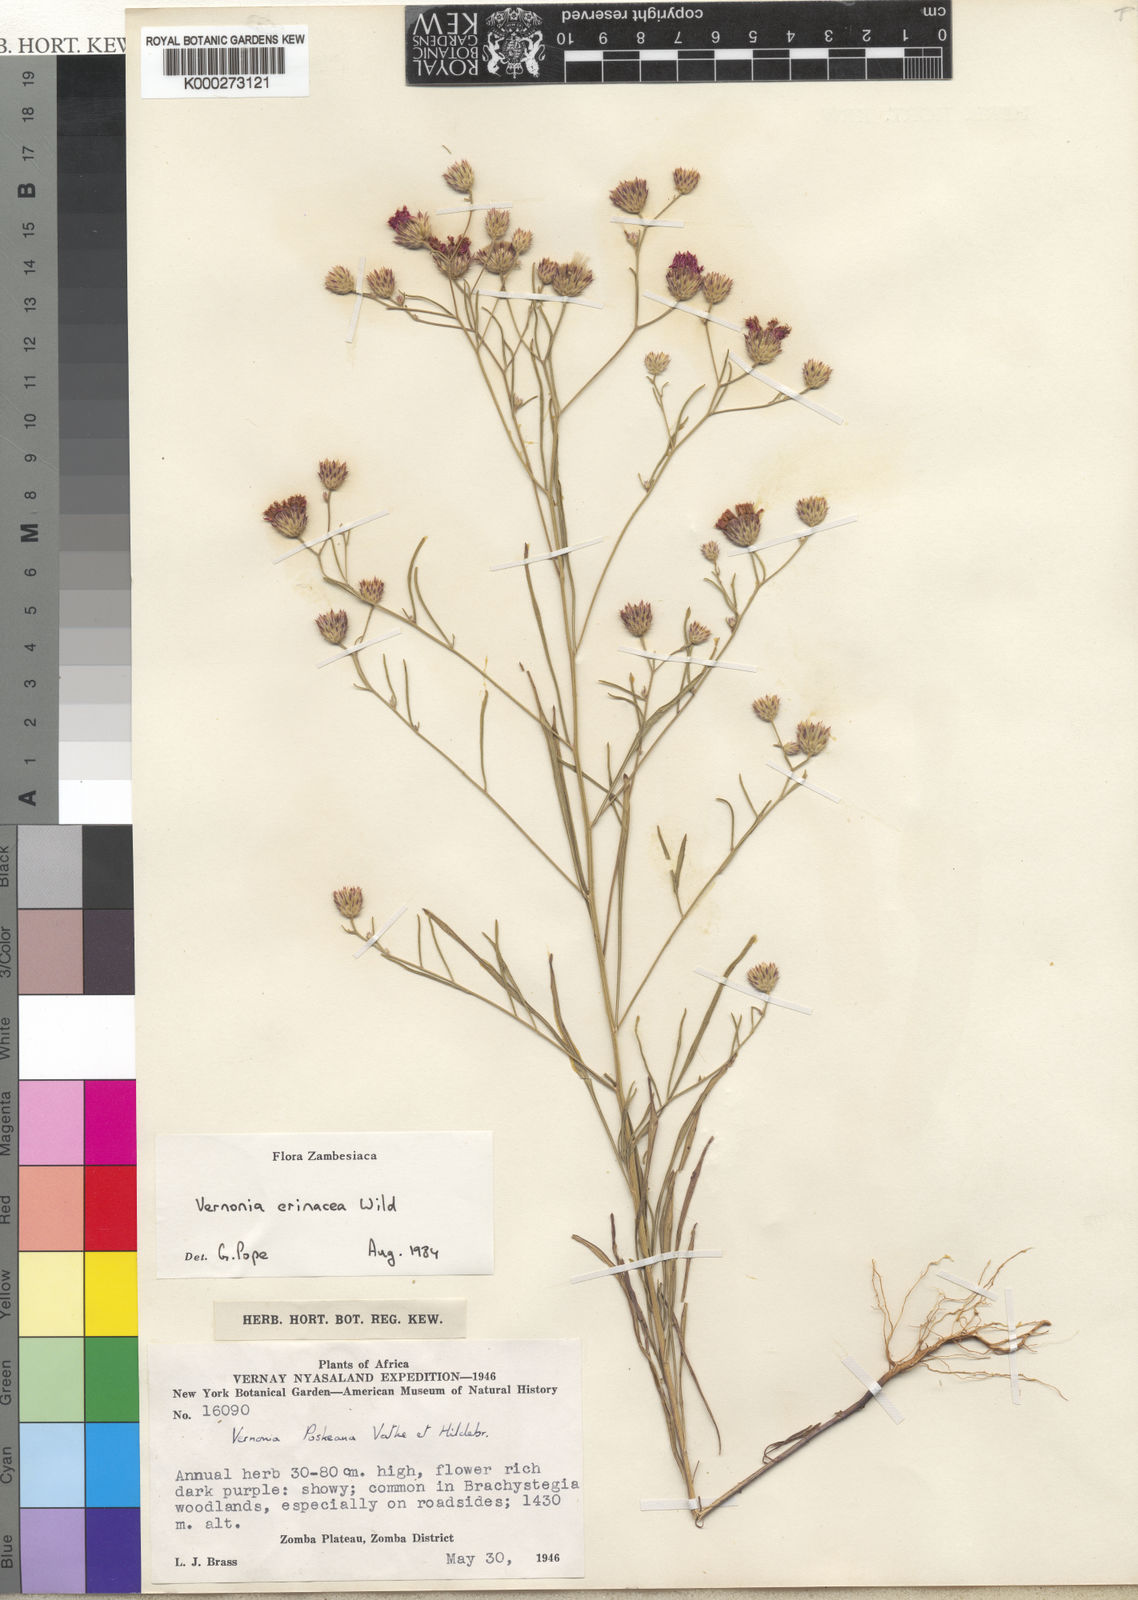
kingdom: Plantae
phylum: Tracheophyta
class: Magnoliopsida
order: Asterales
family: Asteraceae
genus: Crystallopollen
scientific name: Crystallopollen angustifolium
